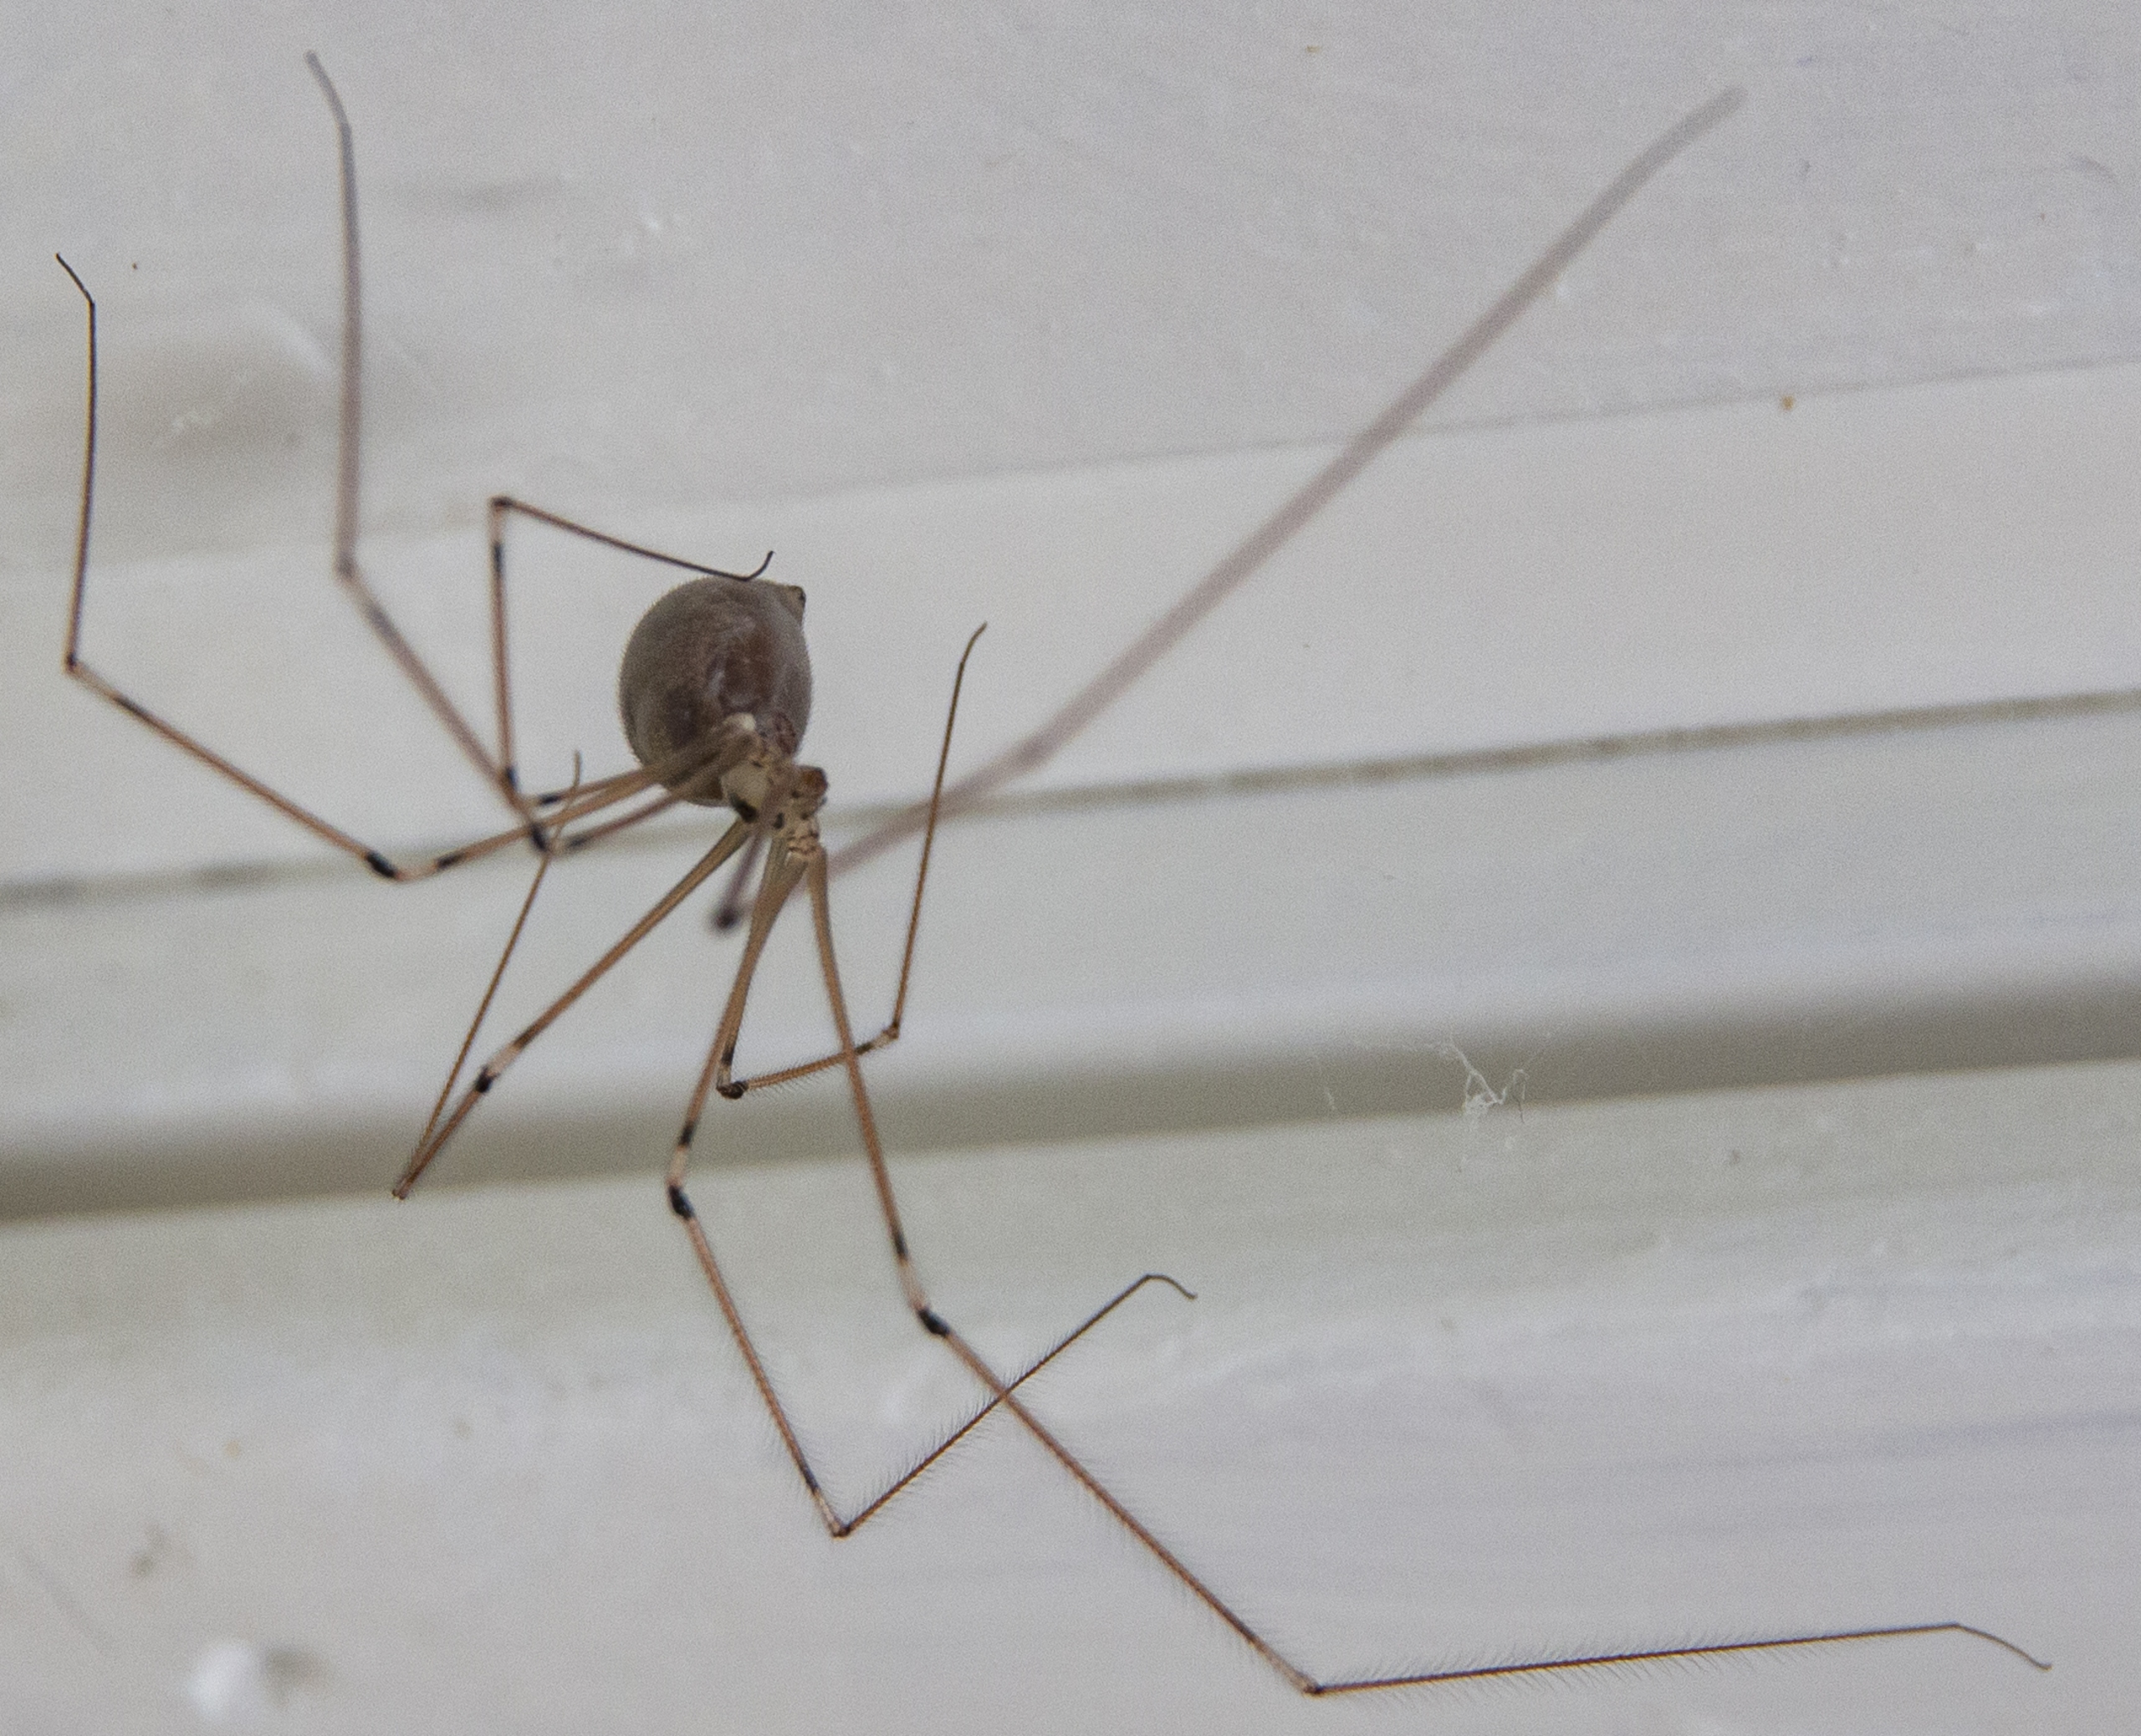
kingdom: Animalia
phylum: Arthropoda
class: Arachnida
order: Araneae
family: Pholcidae
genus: Pholcus
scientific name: Pholcus phalangioides
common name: Mejeredderkop
